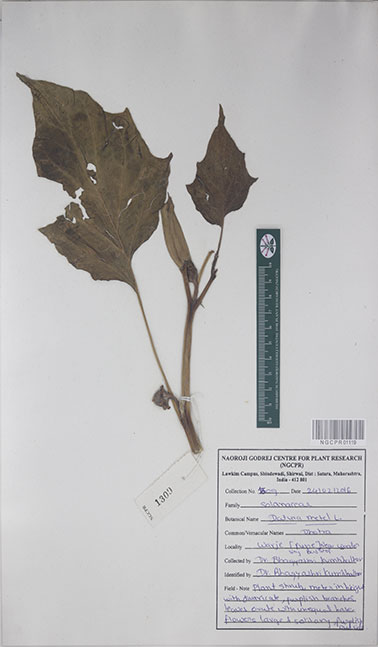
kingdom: Plantae
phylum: Tracheophyta
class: Magnoliopsida
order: Solanales
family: Solanaceae
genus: Datura
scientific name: Datura metel
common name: Jimsonweed
